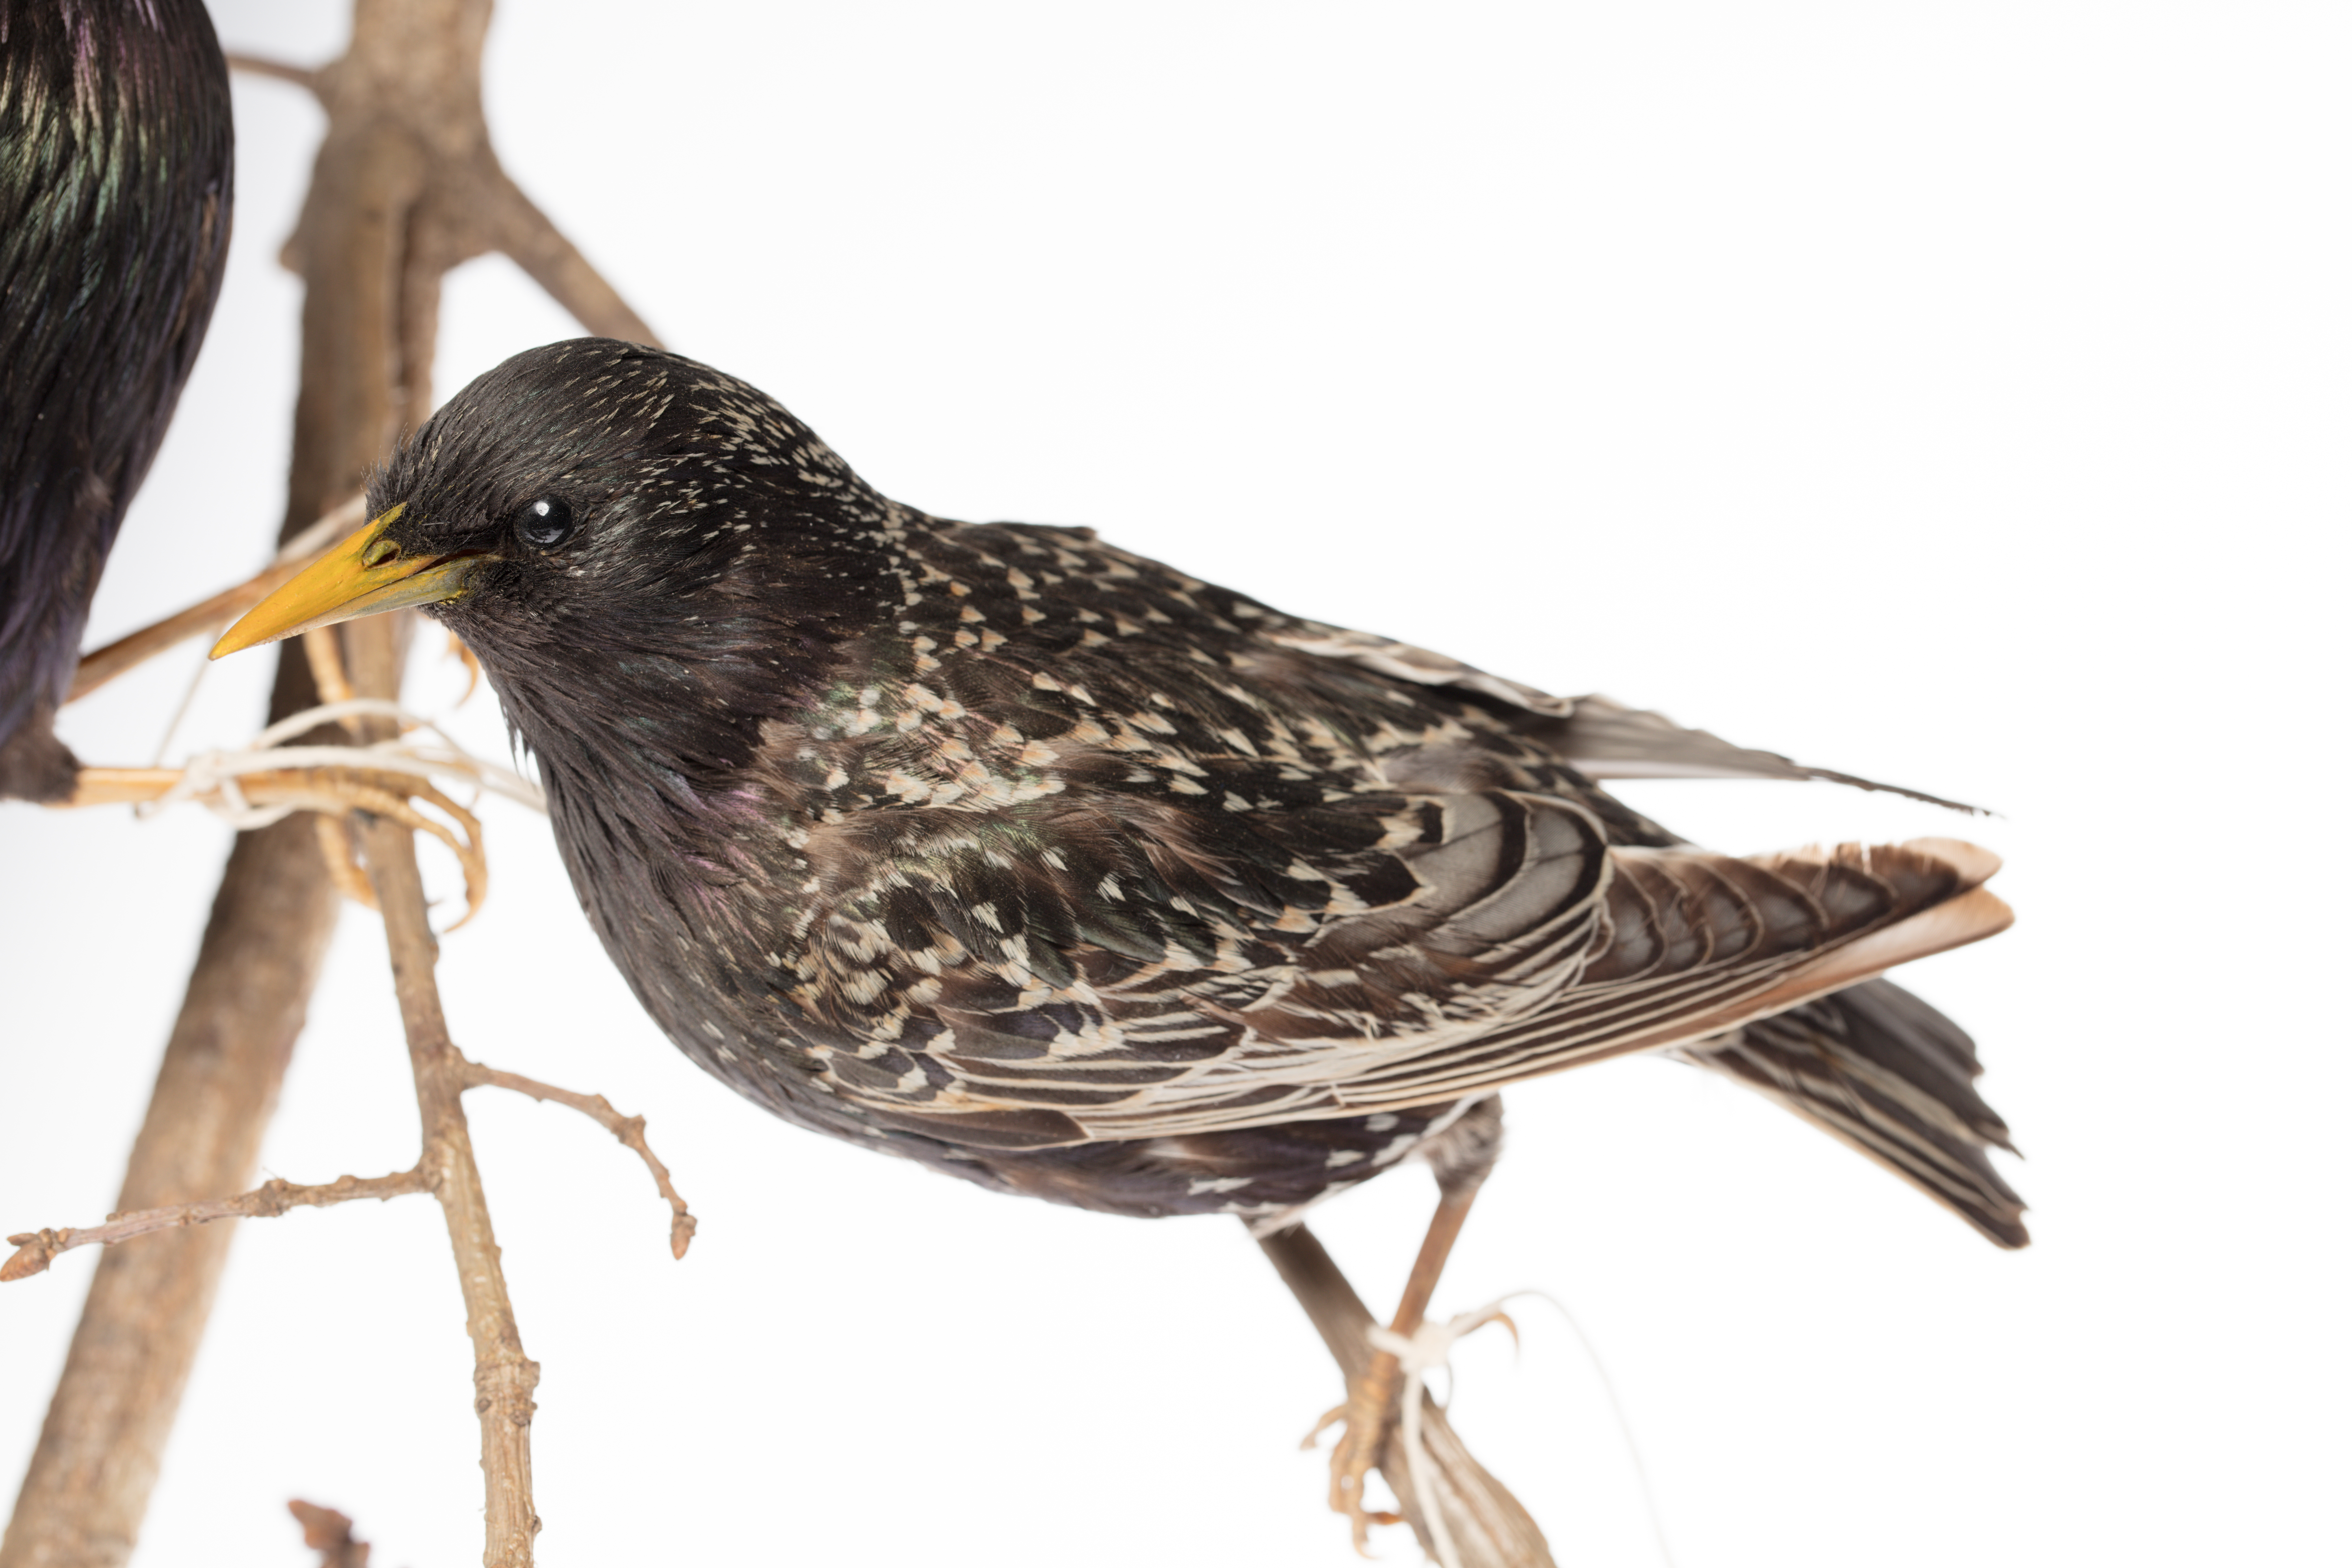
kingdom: Animalia
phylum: Chordata
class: Aves
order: Passeriformes
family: Sturnidae
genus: Sturnus
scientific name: Sturnus vulgaris
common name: Common starling
